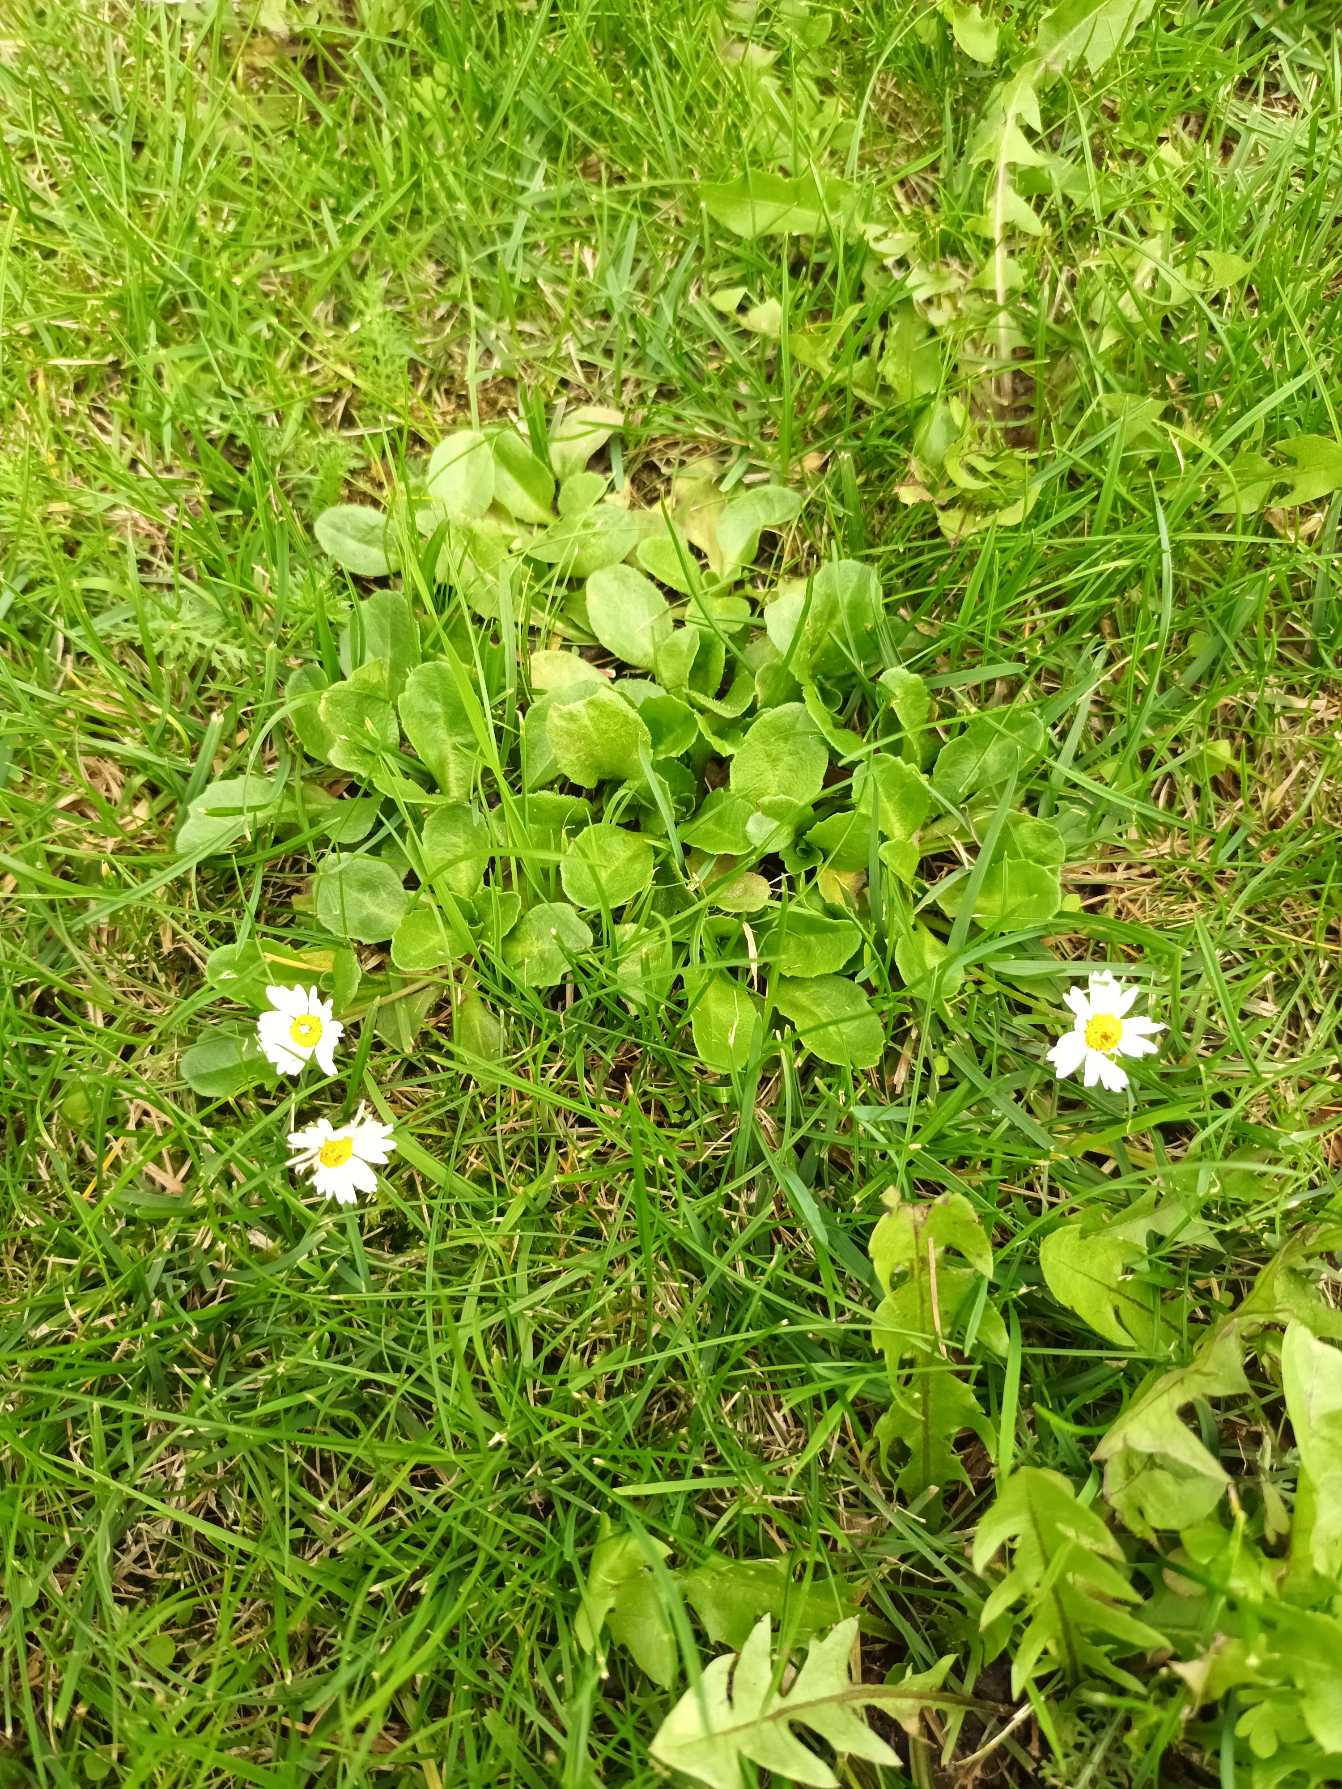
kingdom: Plantae
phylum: Tracheophyta
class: Magnoliopsida
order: Asterales
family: Asteraceae
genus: Bellis
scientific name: Bellis perennis
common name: Tusindfryd
